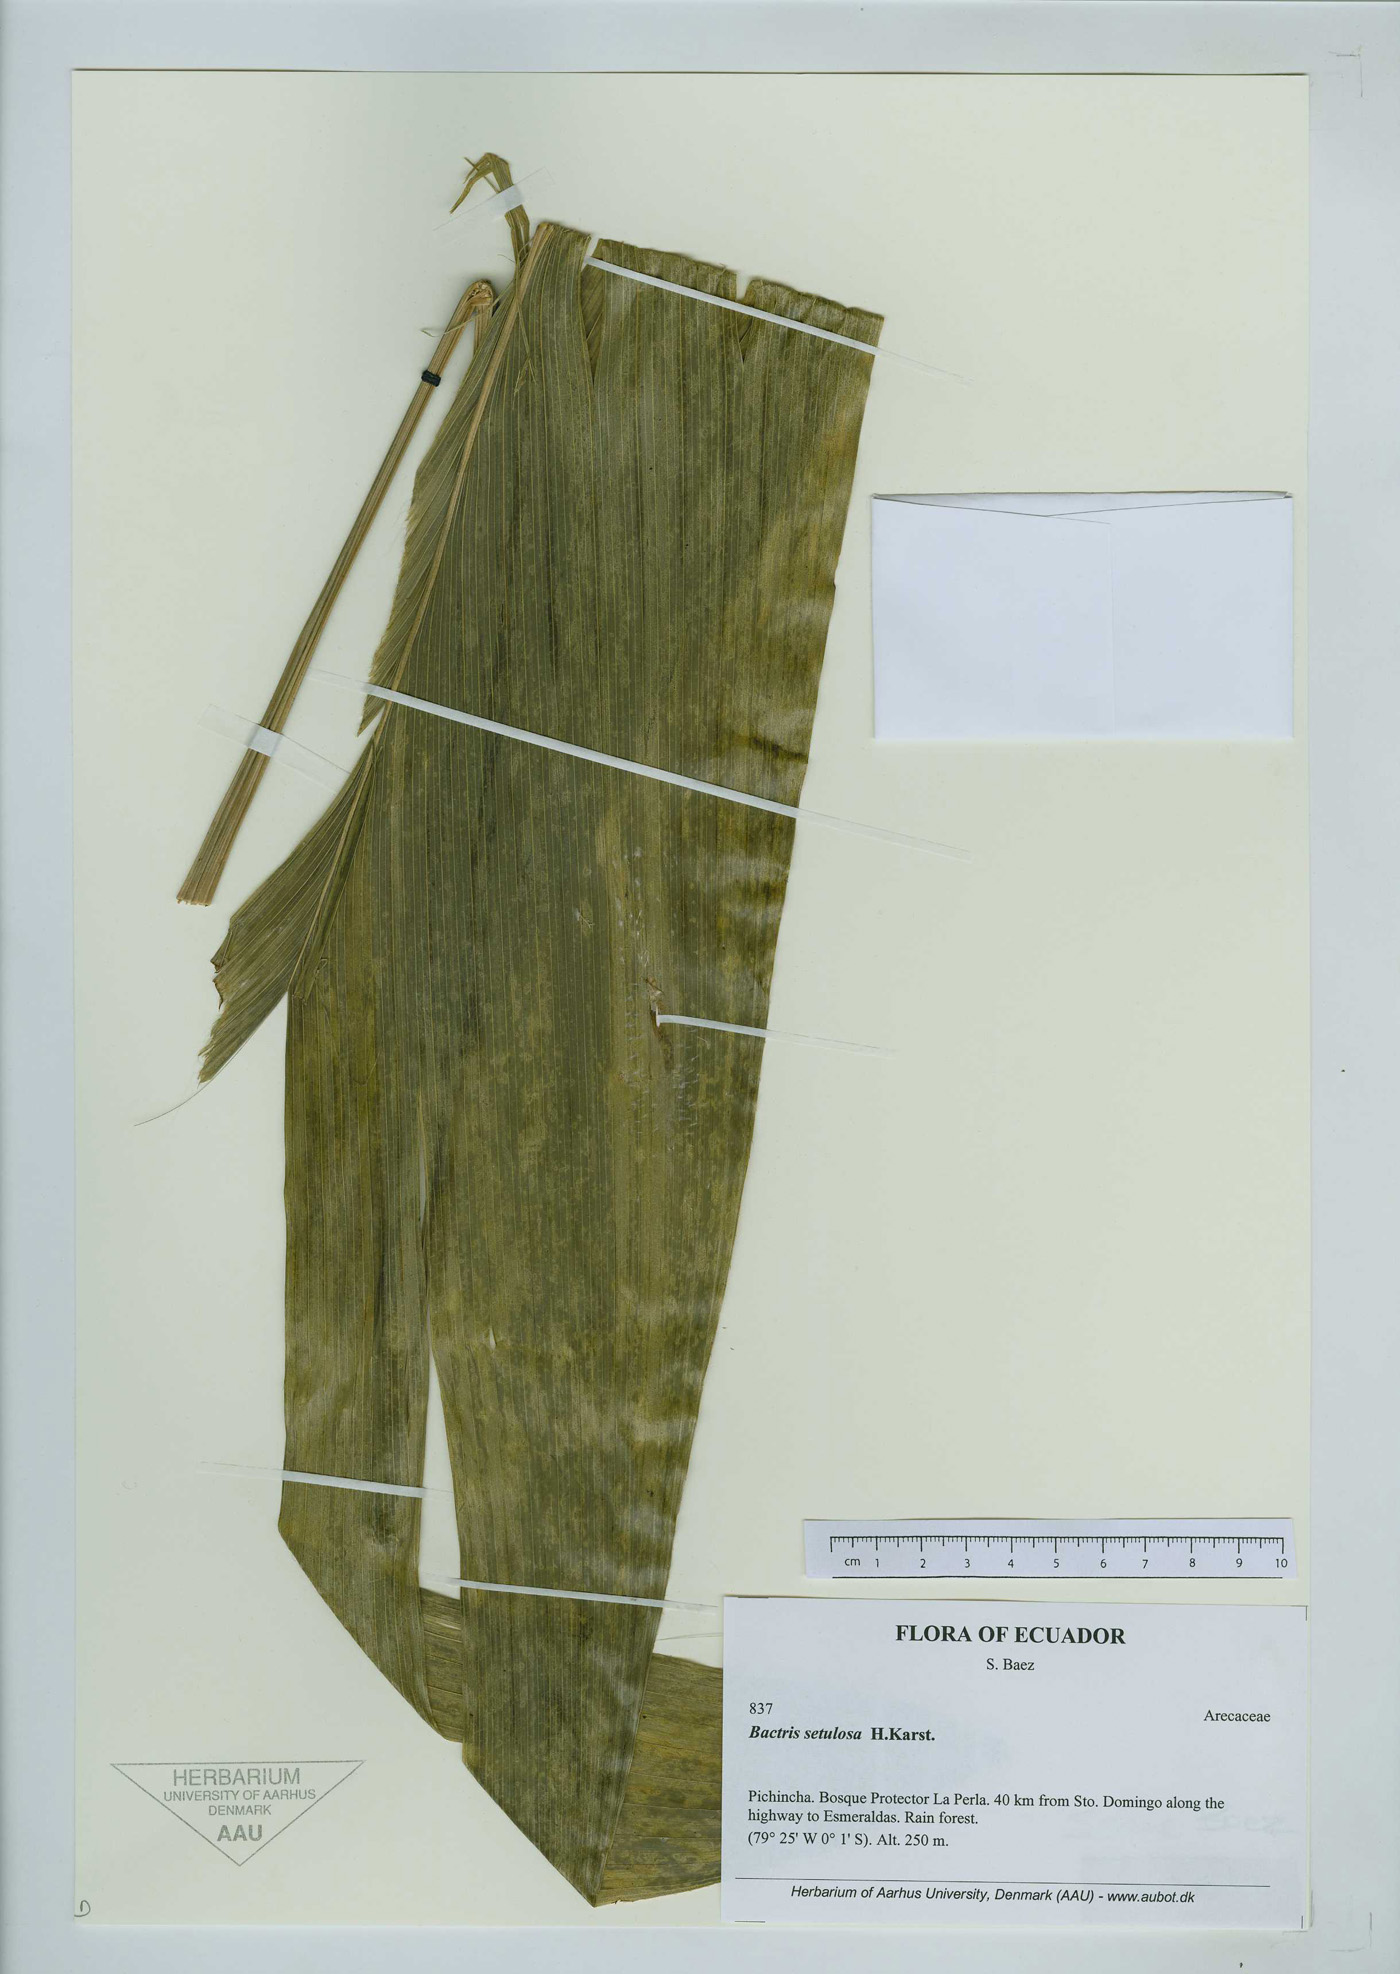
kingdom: Plantae
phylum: Tracheophyta
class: Liliopsida
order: Arecales
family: Arecaceae
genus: Bactris
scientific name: Bactris setulosa
